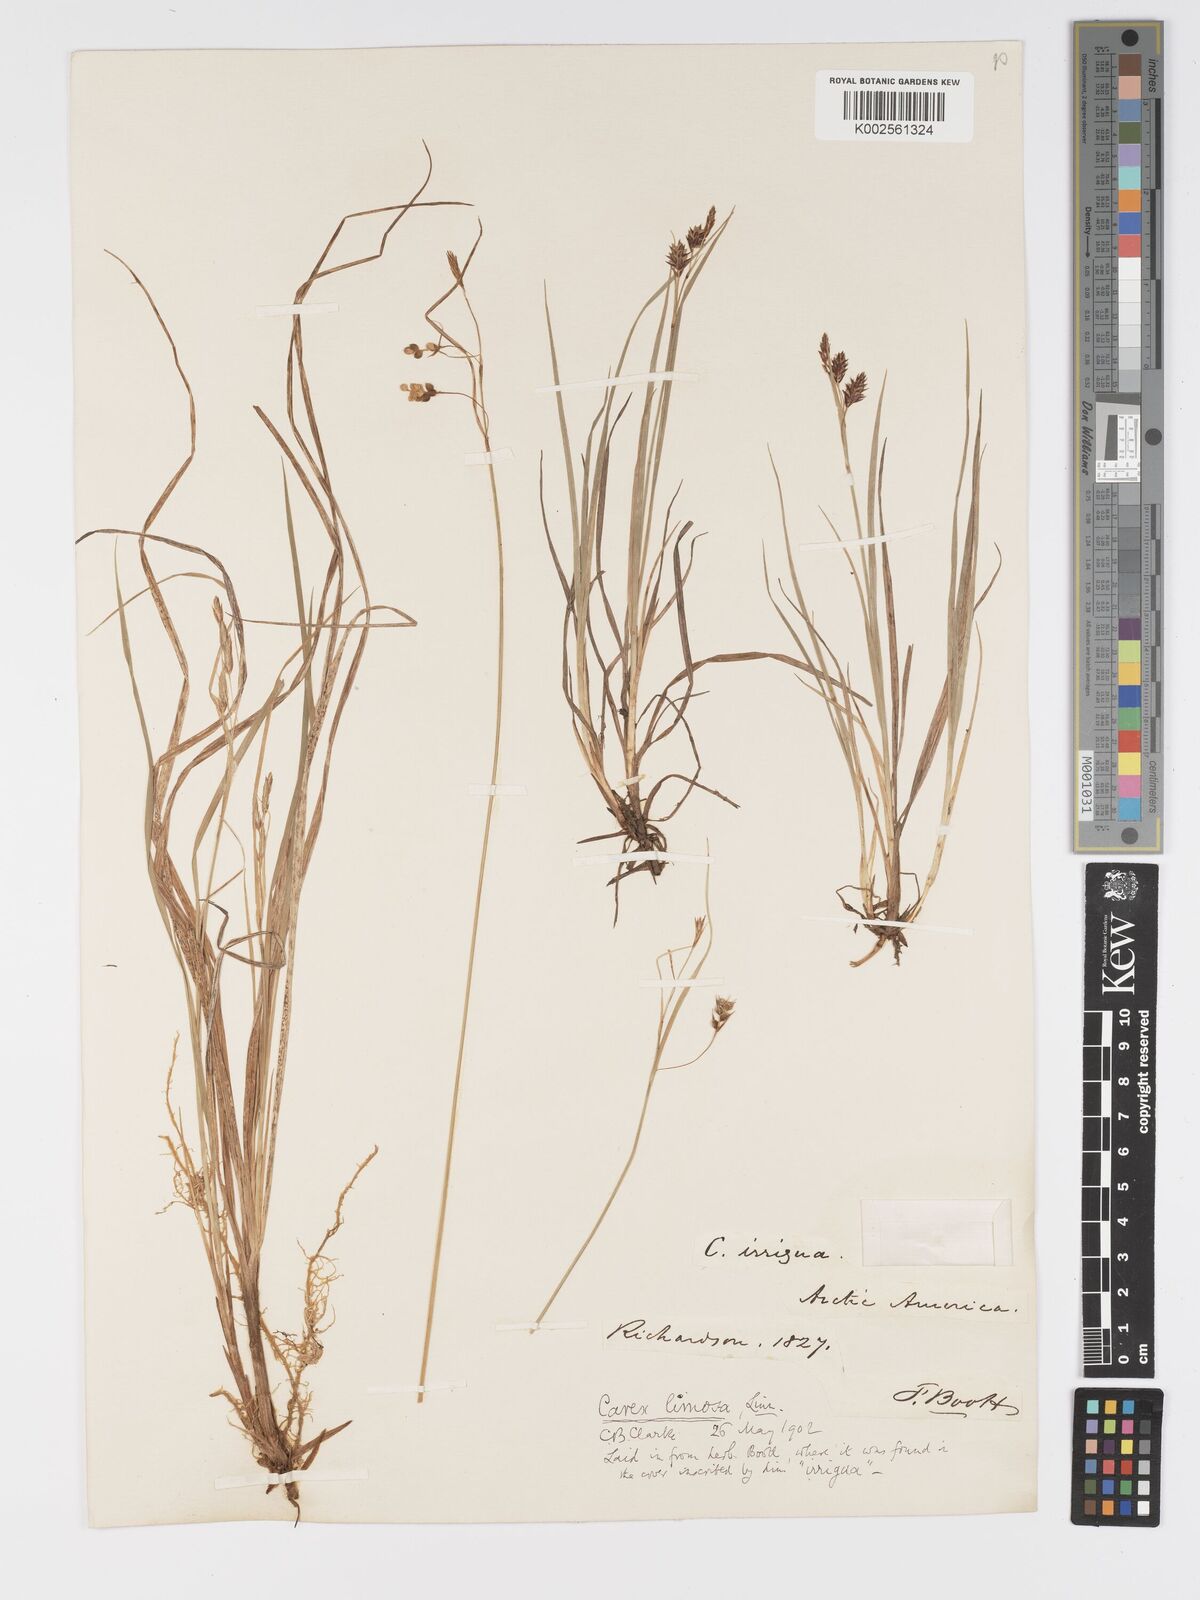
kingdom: Plantae
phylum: Tracheophyta
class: Liliopsida
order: Poales
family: Cyperaceae
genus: Carex
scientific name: Carex magellanica
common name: Bog sedge
